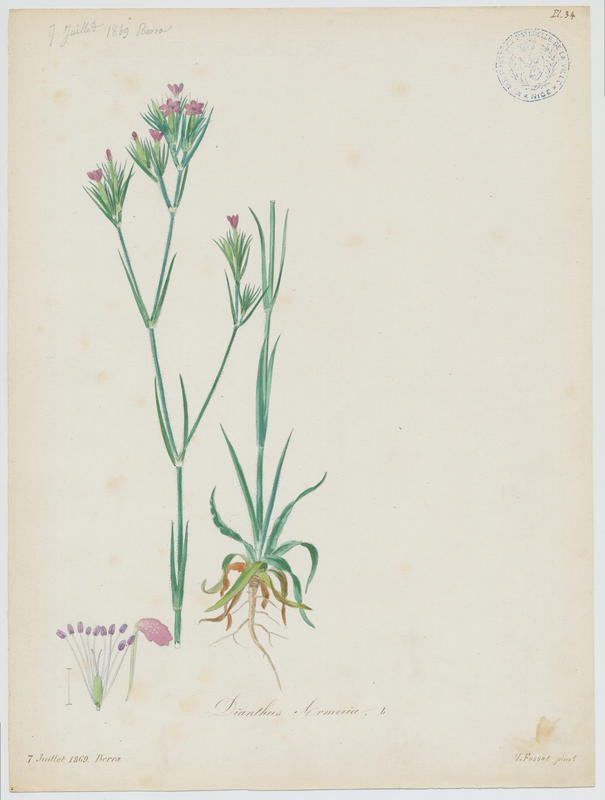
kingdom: Plantae
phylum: Tracheophyta
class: Magnoliopsida
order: Caryophyllales
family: Caryophyllaceae
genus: Dianthus
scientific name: Dianthus armeria
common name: Deptford pink
